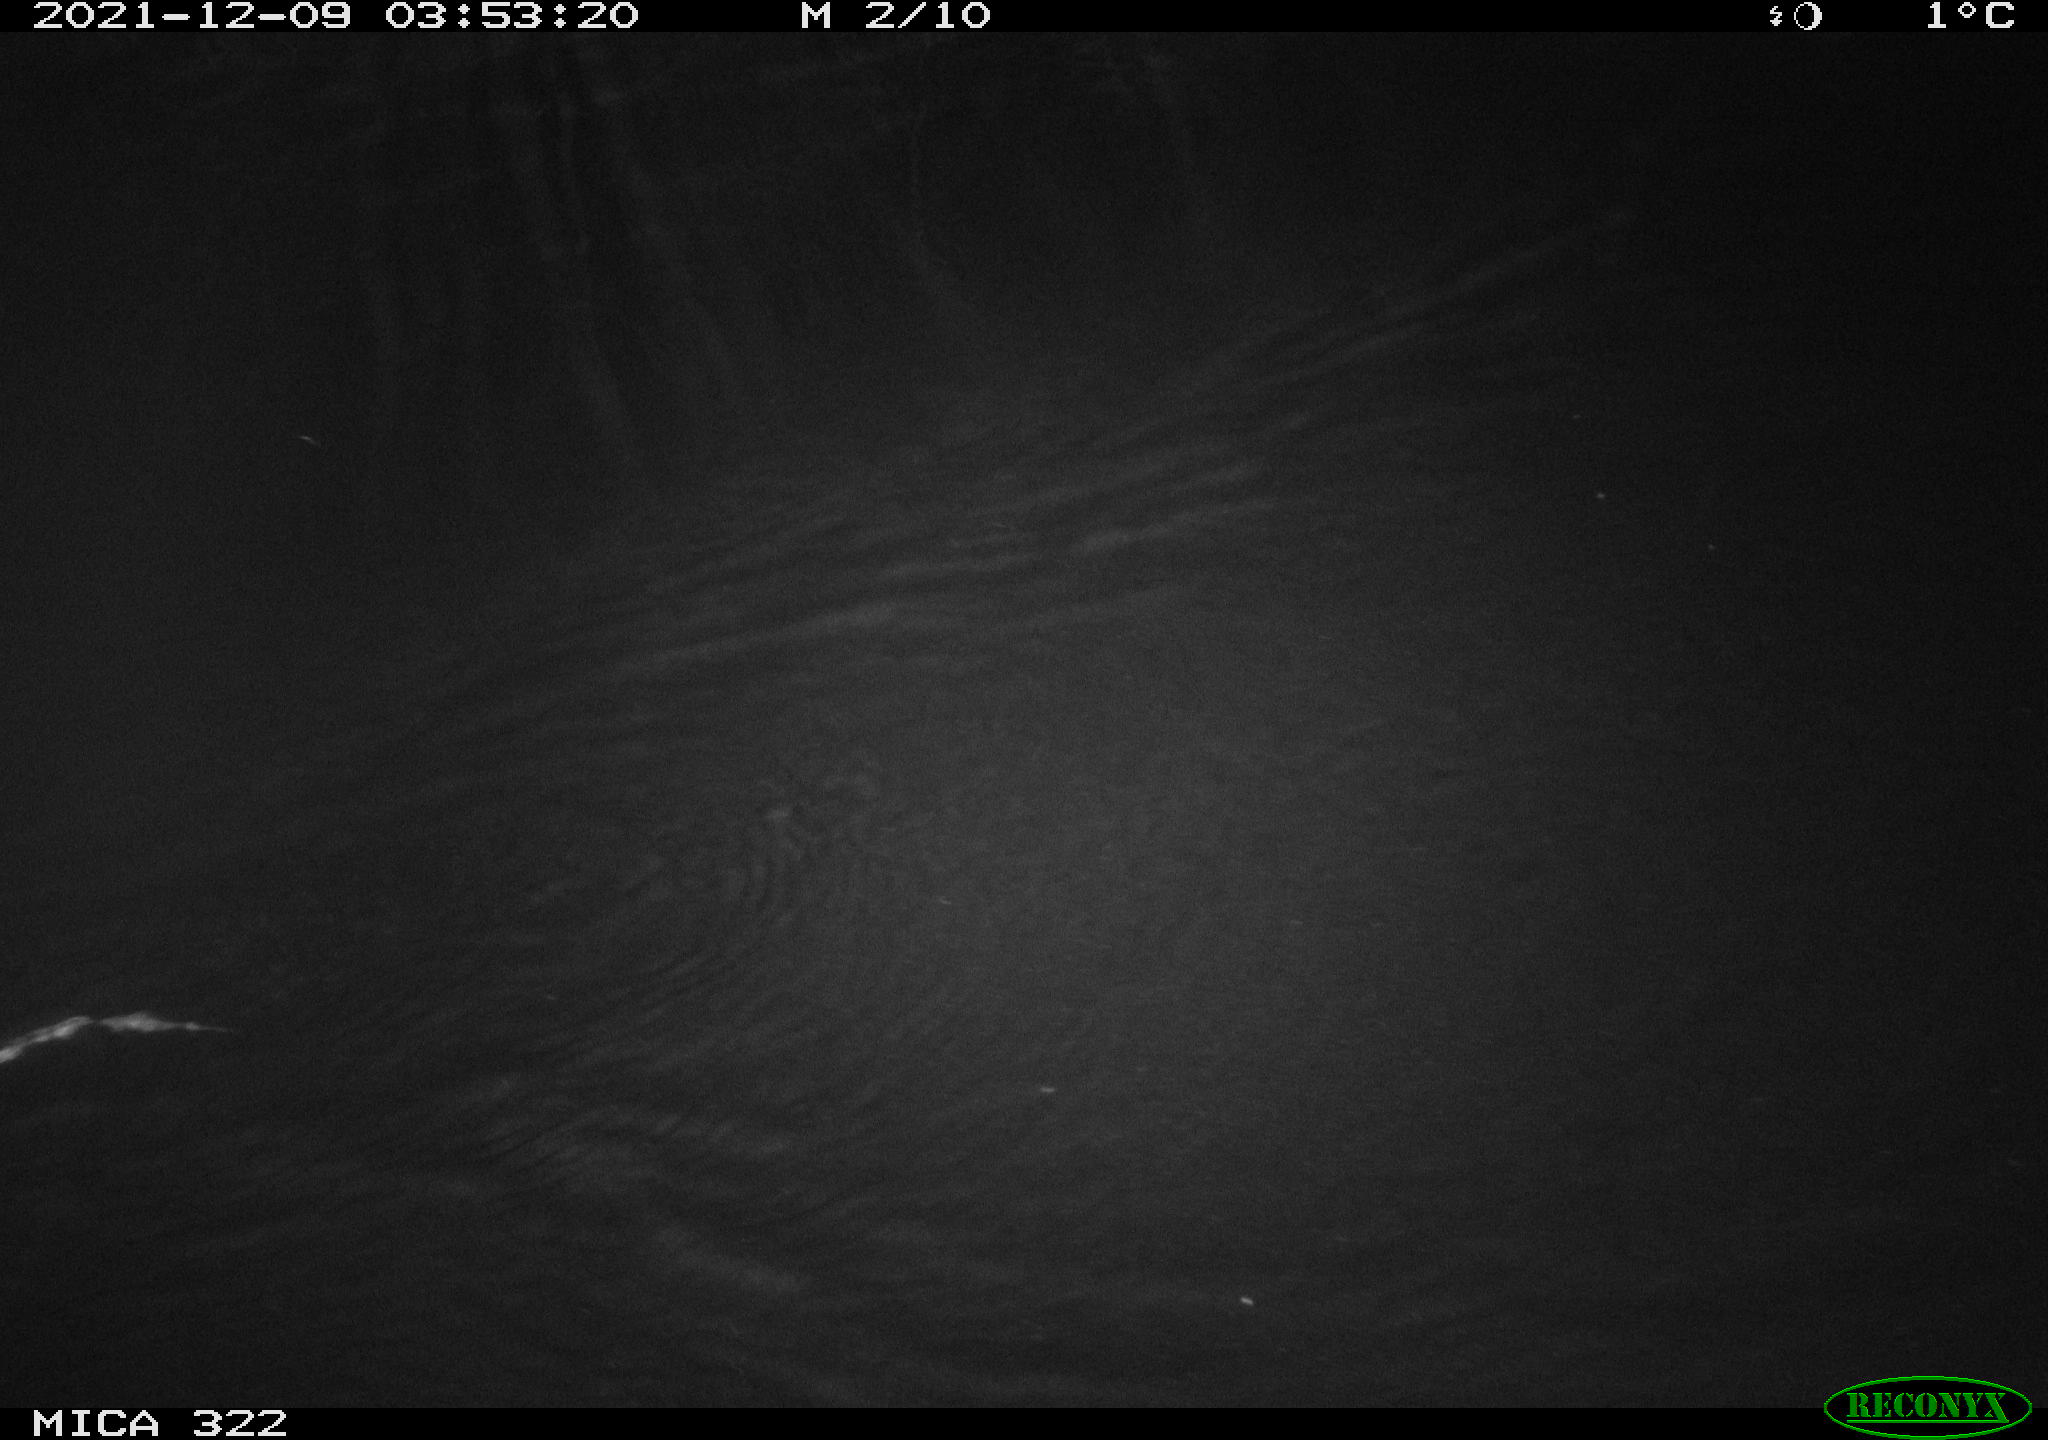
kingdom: Animalia
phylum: Chordata
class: Mammalia
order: Rodentia
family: Muridae
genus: Rattus
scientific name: Rattus norvegicus
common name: Brown rat
